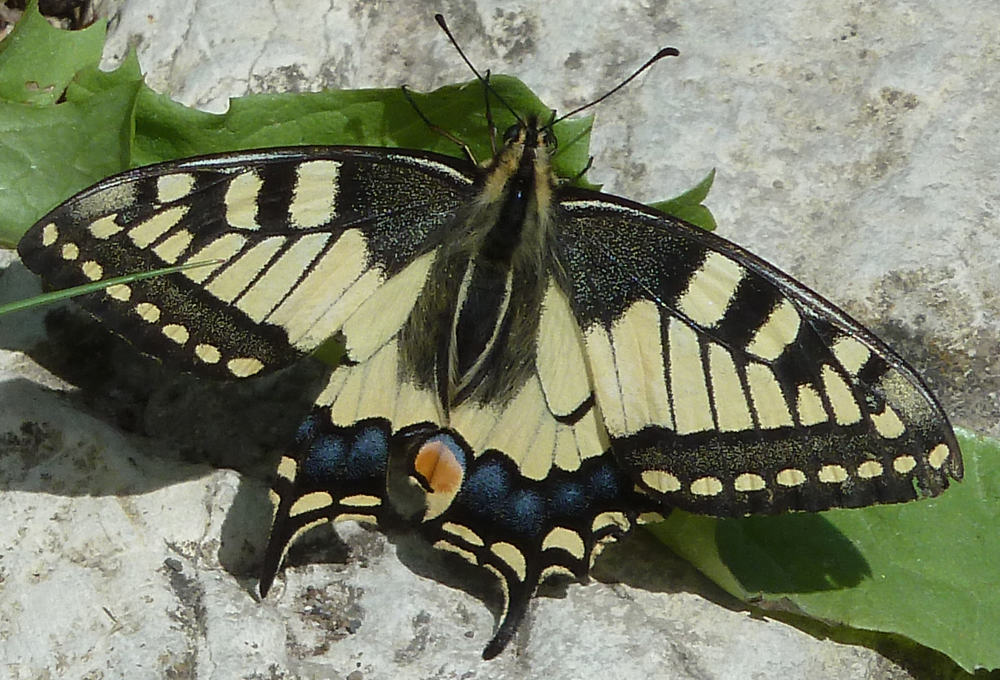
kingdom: Animalia
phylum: Arthropoda
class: Insecta
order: Lepidoptera
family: Papilionidae
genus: Papilio
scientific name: Papilio machaon
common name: Swallowtail
